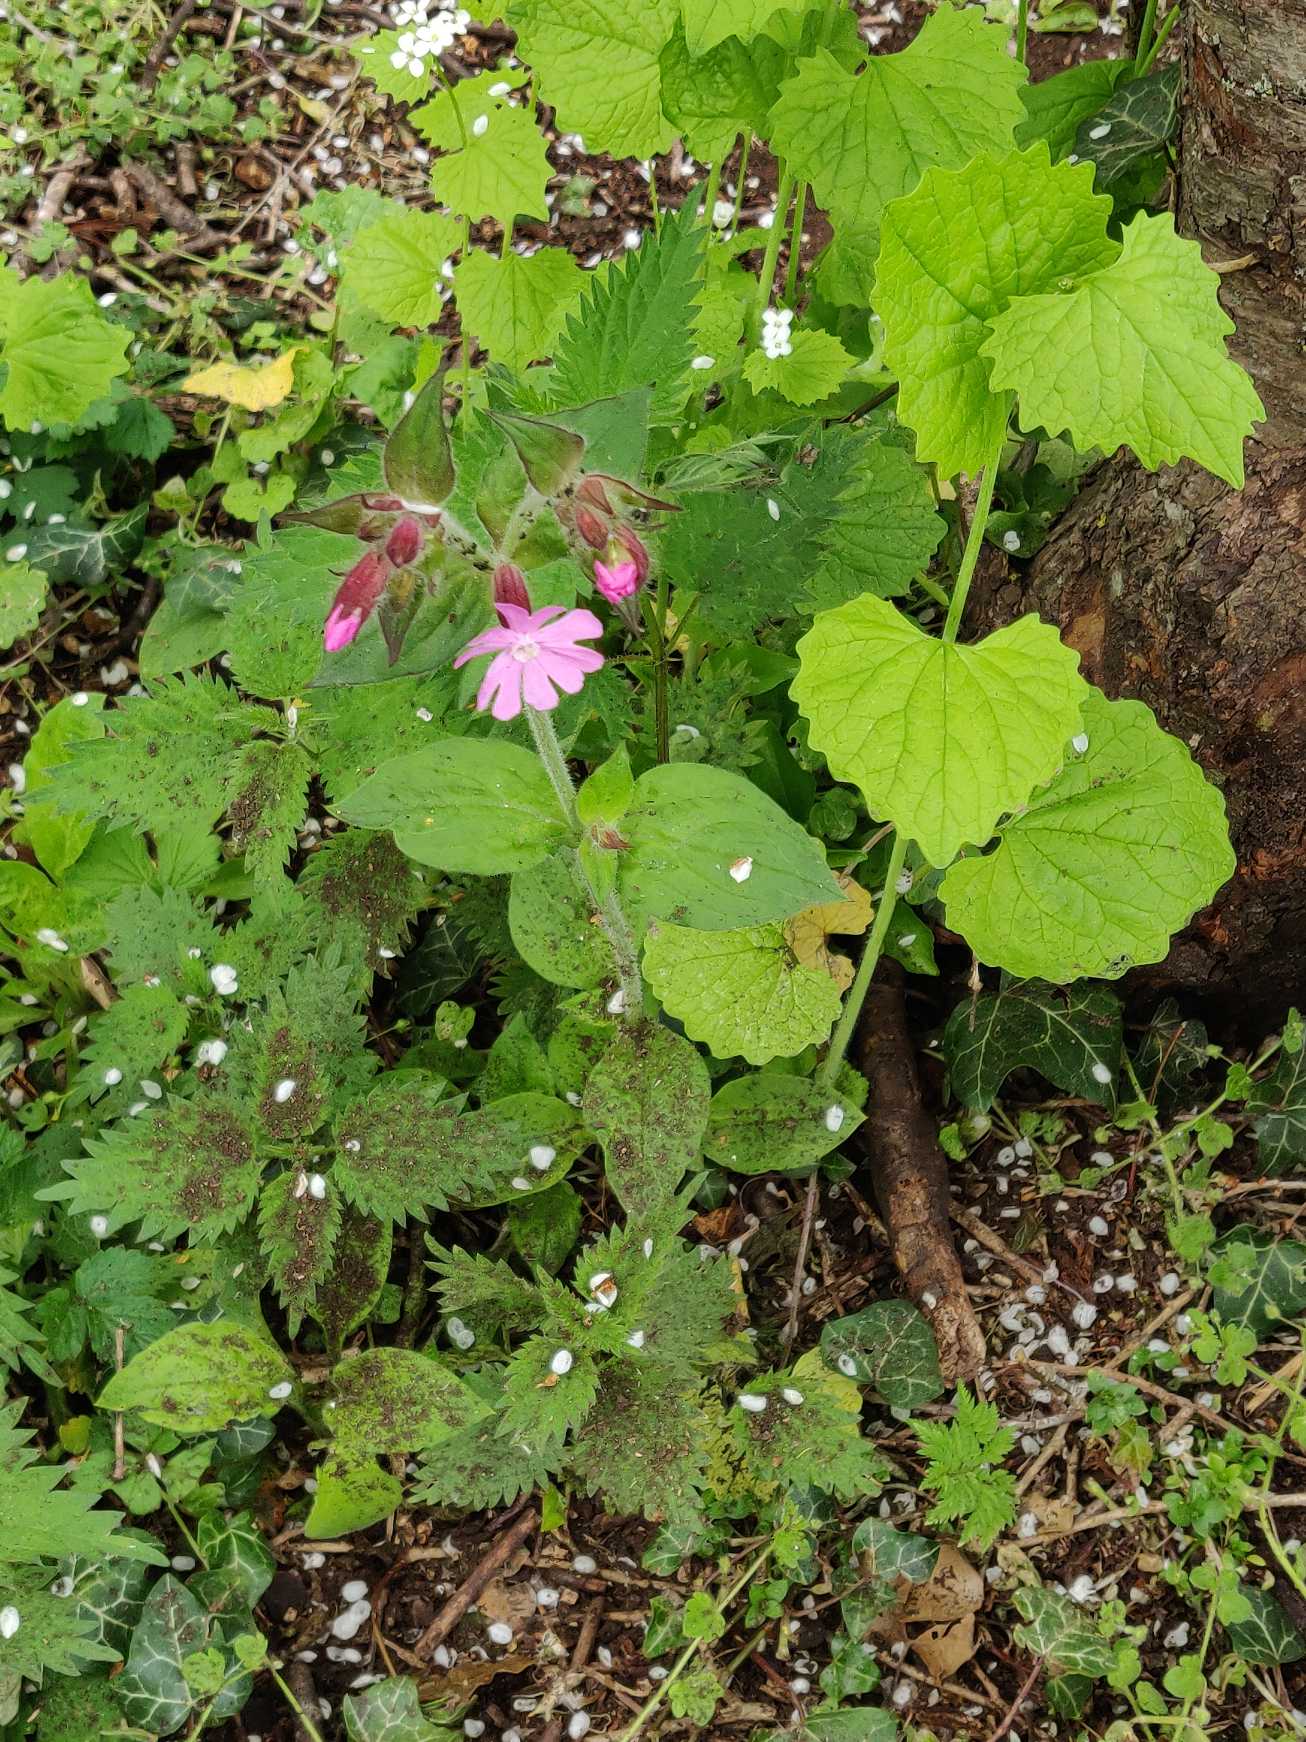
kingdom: Plantae
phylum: Tracheophyta
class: Magnoliopsida
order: Caryophyllales
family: Caryophyllaceae
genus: Silene
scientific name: Silene dioica
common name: Dagpragtstjerne
